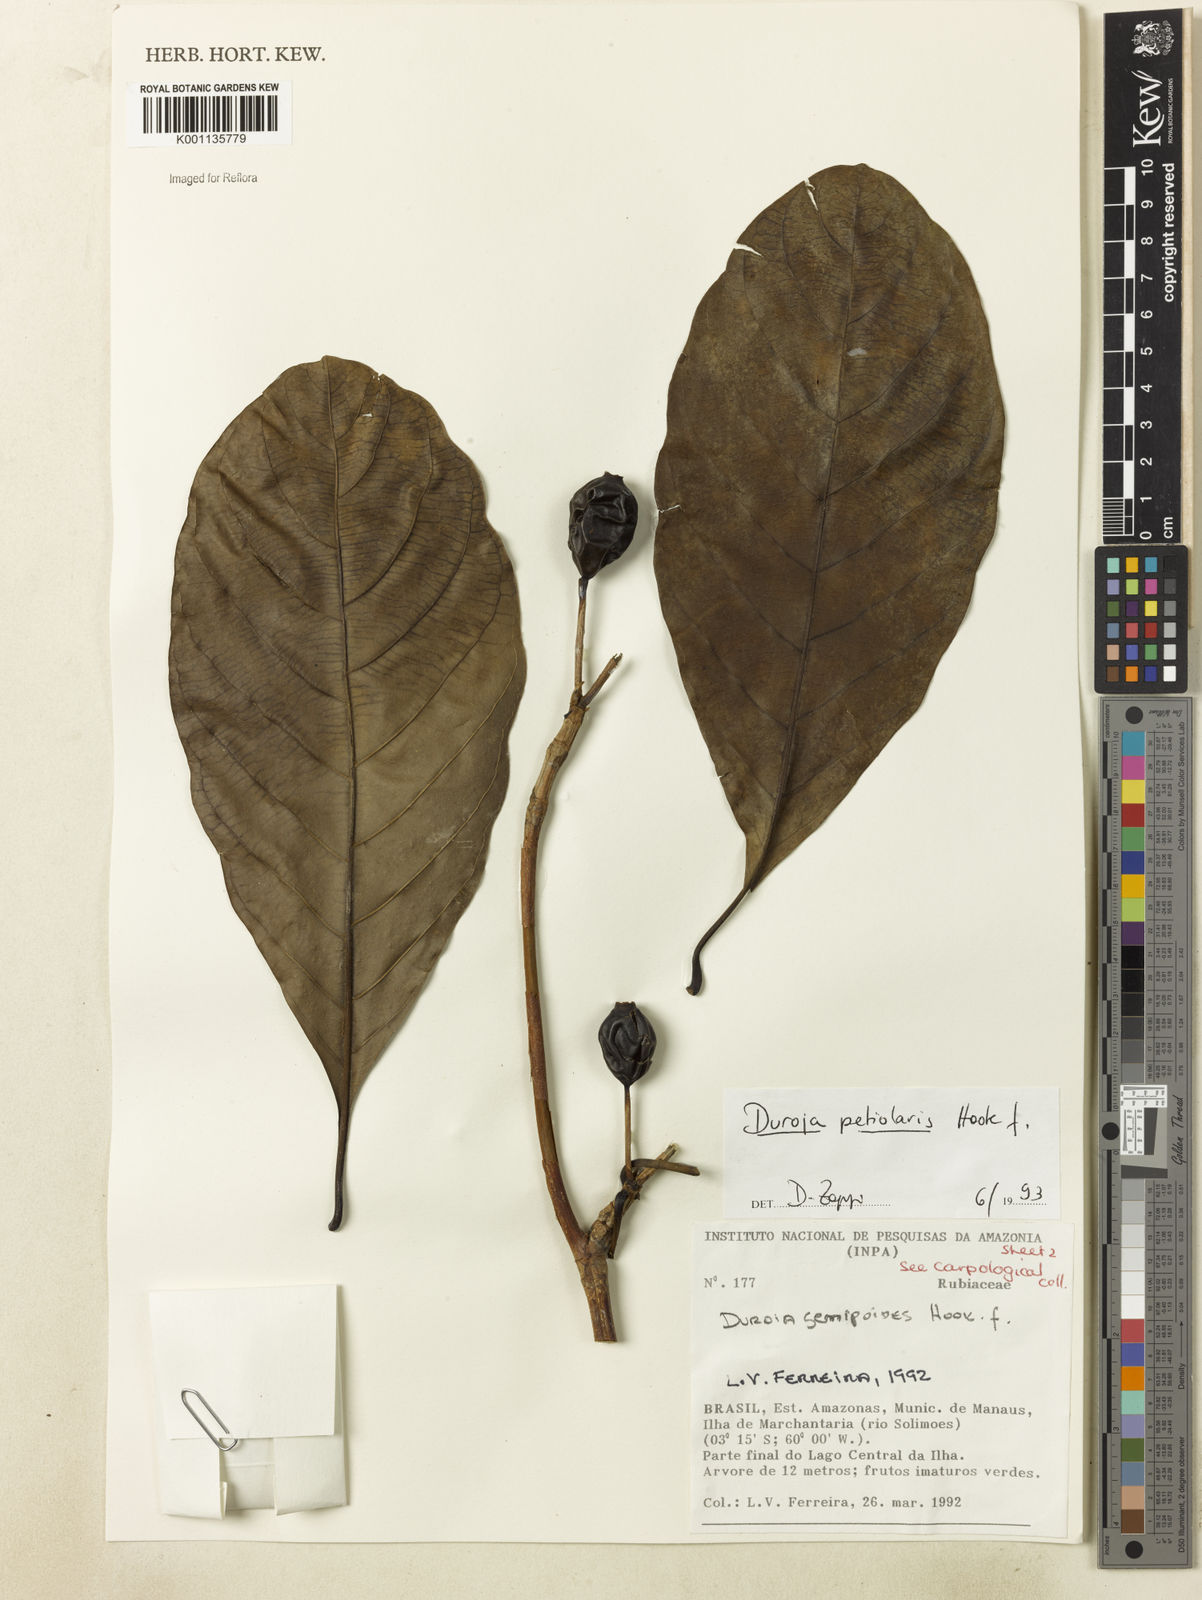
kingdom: Plantae
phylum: Tracheophyta
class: Magnoliopsida
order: Gentianales
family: Rubiaceae
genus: Duroia
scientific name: Duroia petiolaris
